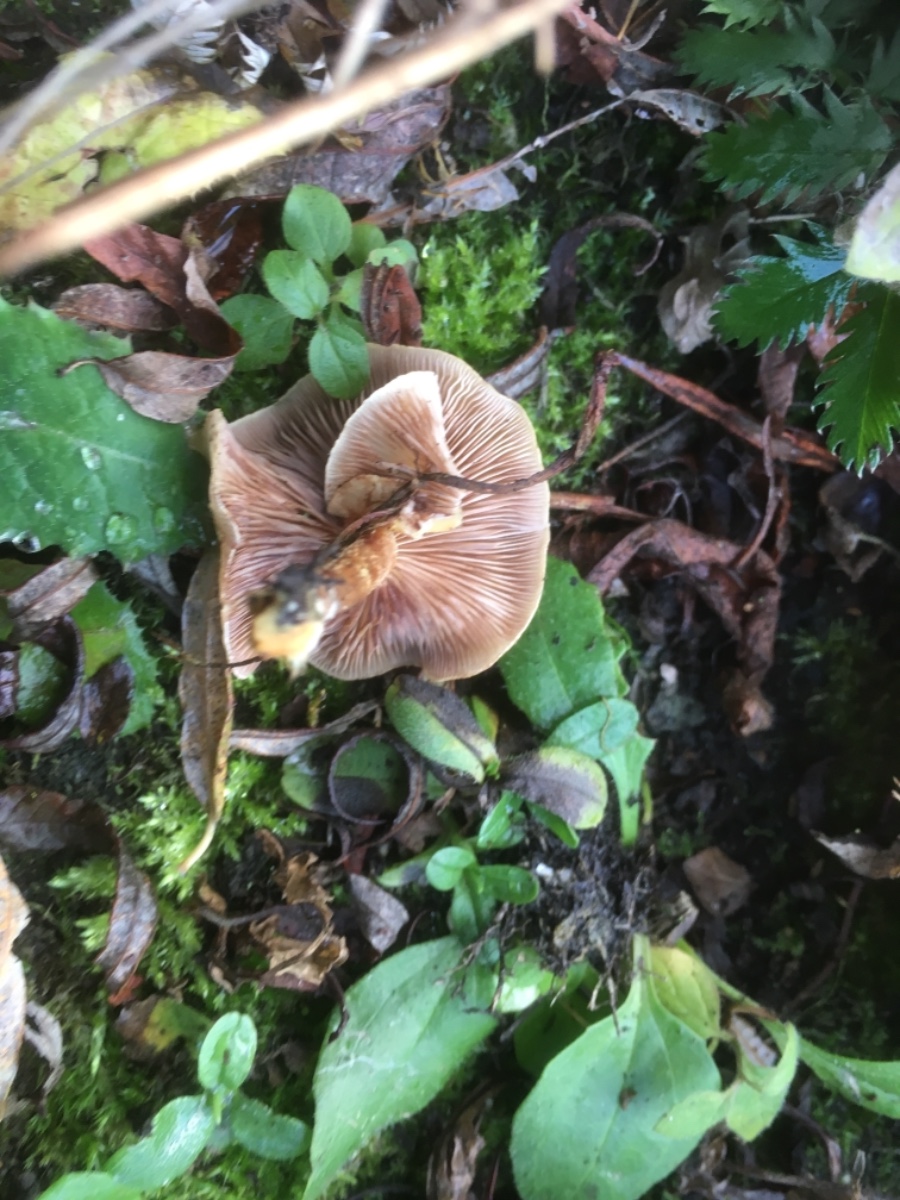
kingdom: Fungi
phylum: Basidiomycota
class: Agaricomycetes
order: Agaricales
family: Strophariaceae
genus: Pholiota
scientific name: Pholiota
